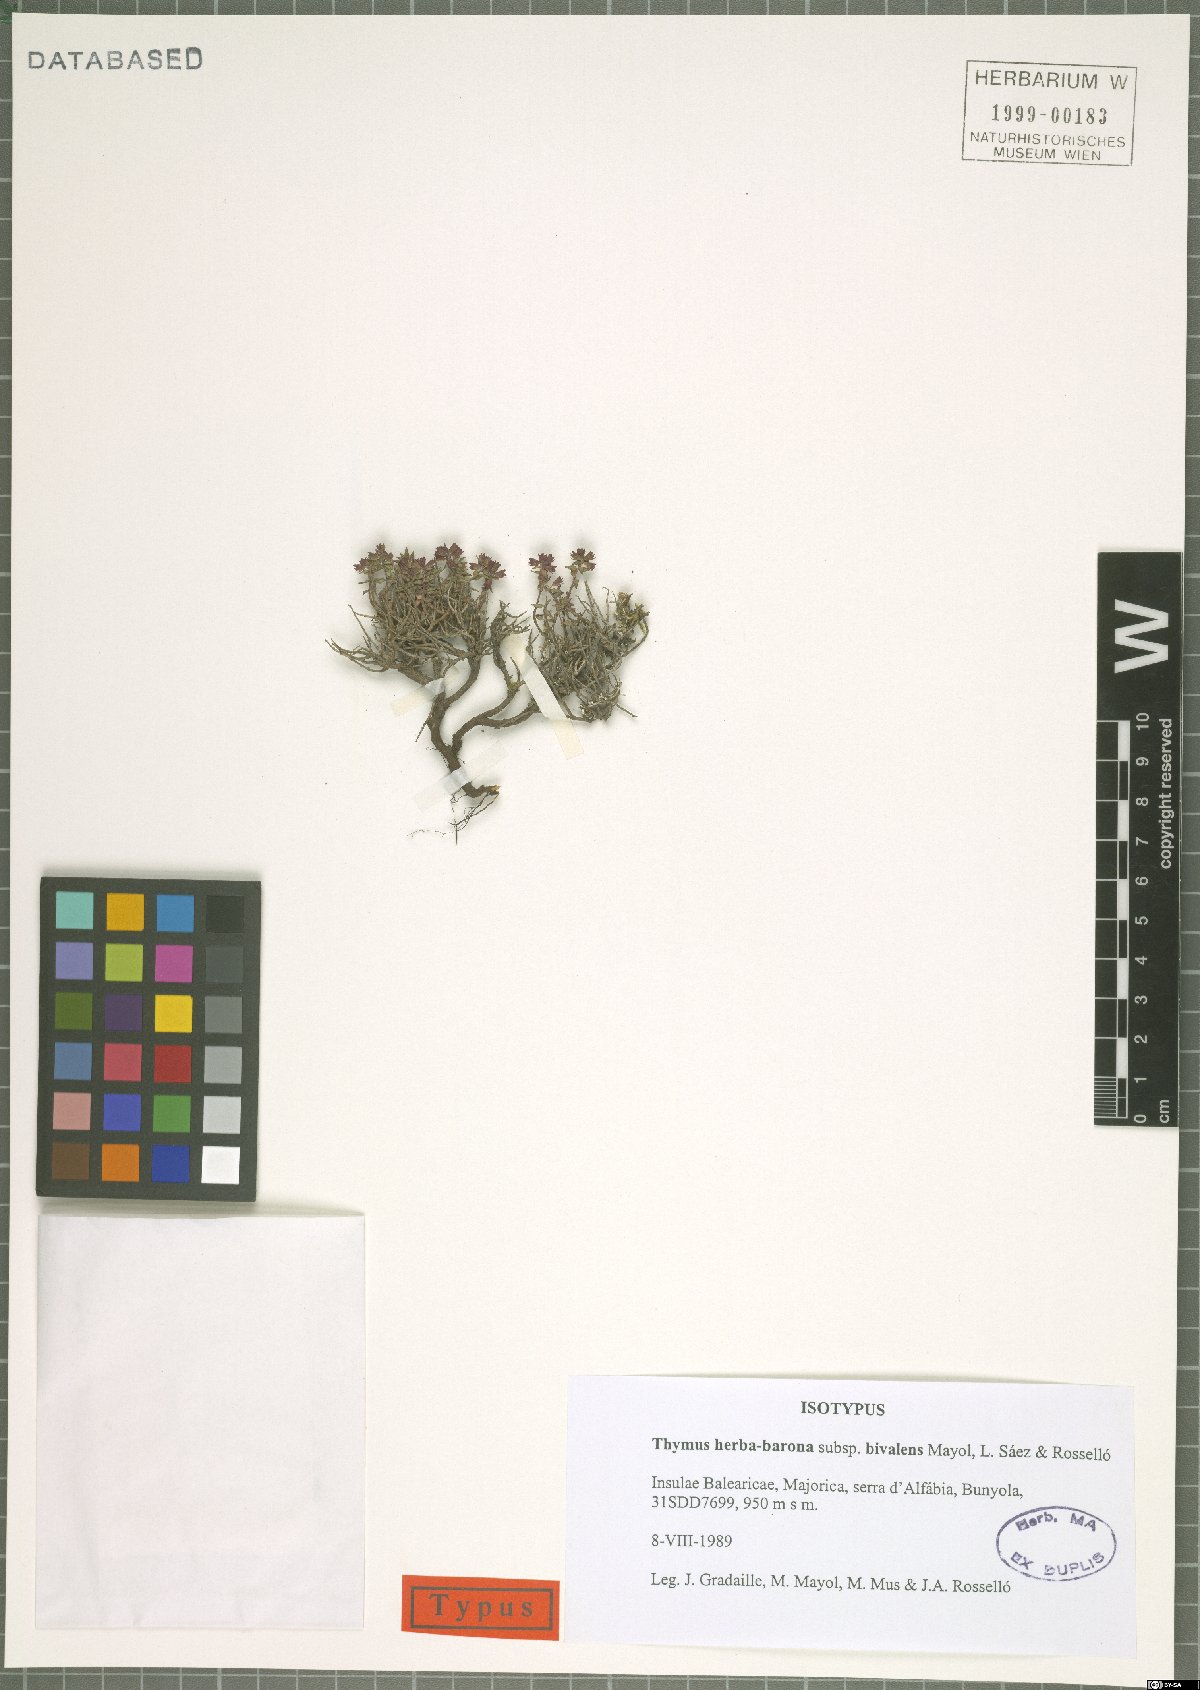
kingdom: Plantae
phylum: Tracheophyta
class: Magnoliopsida
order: Lamiales
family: Lamiaceae
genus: Thymus
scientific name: Thymus bivalens
